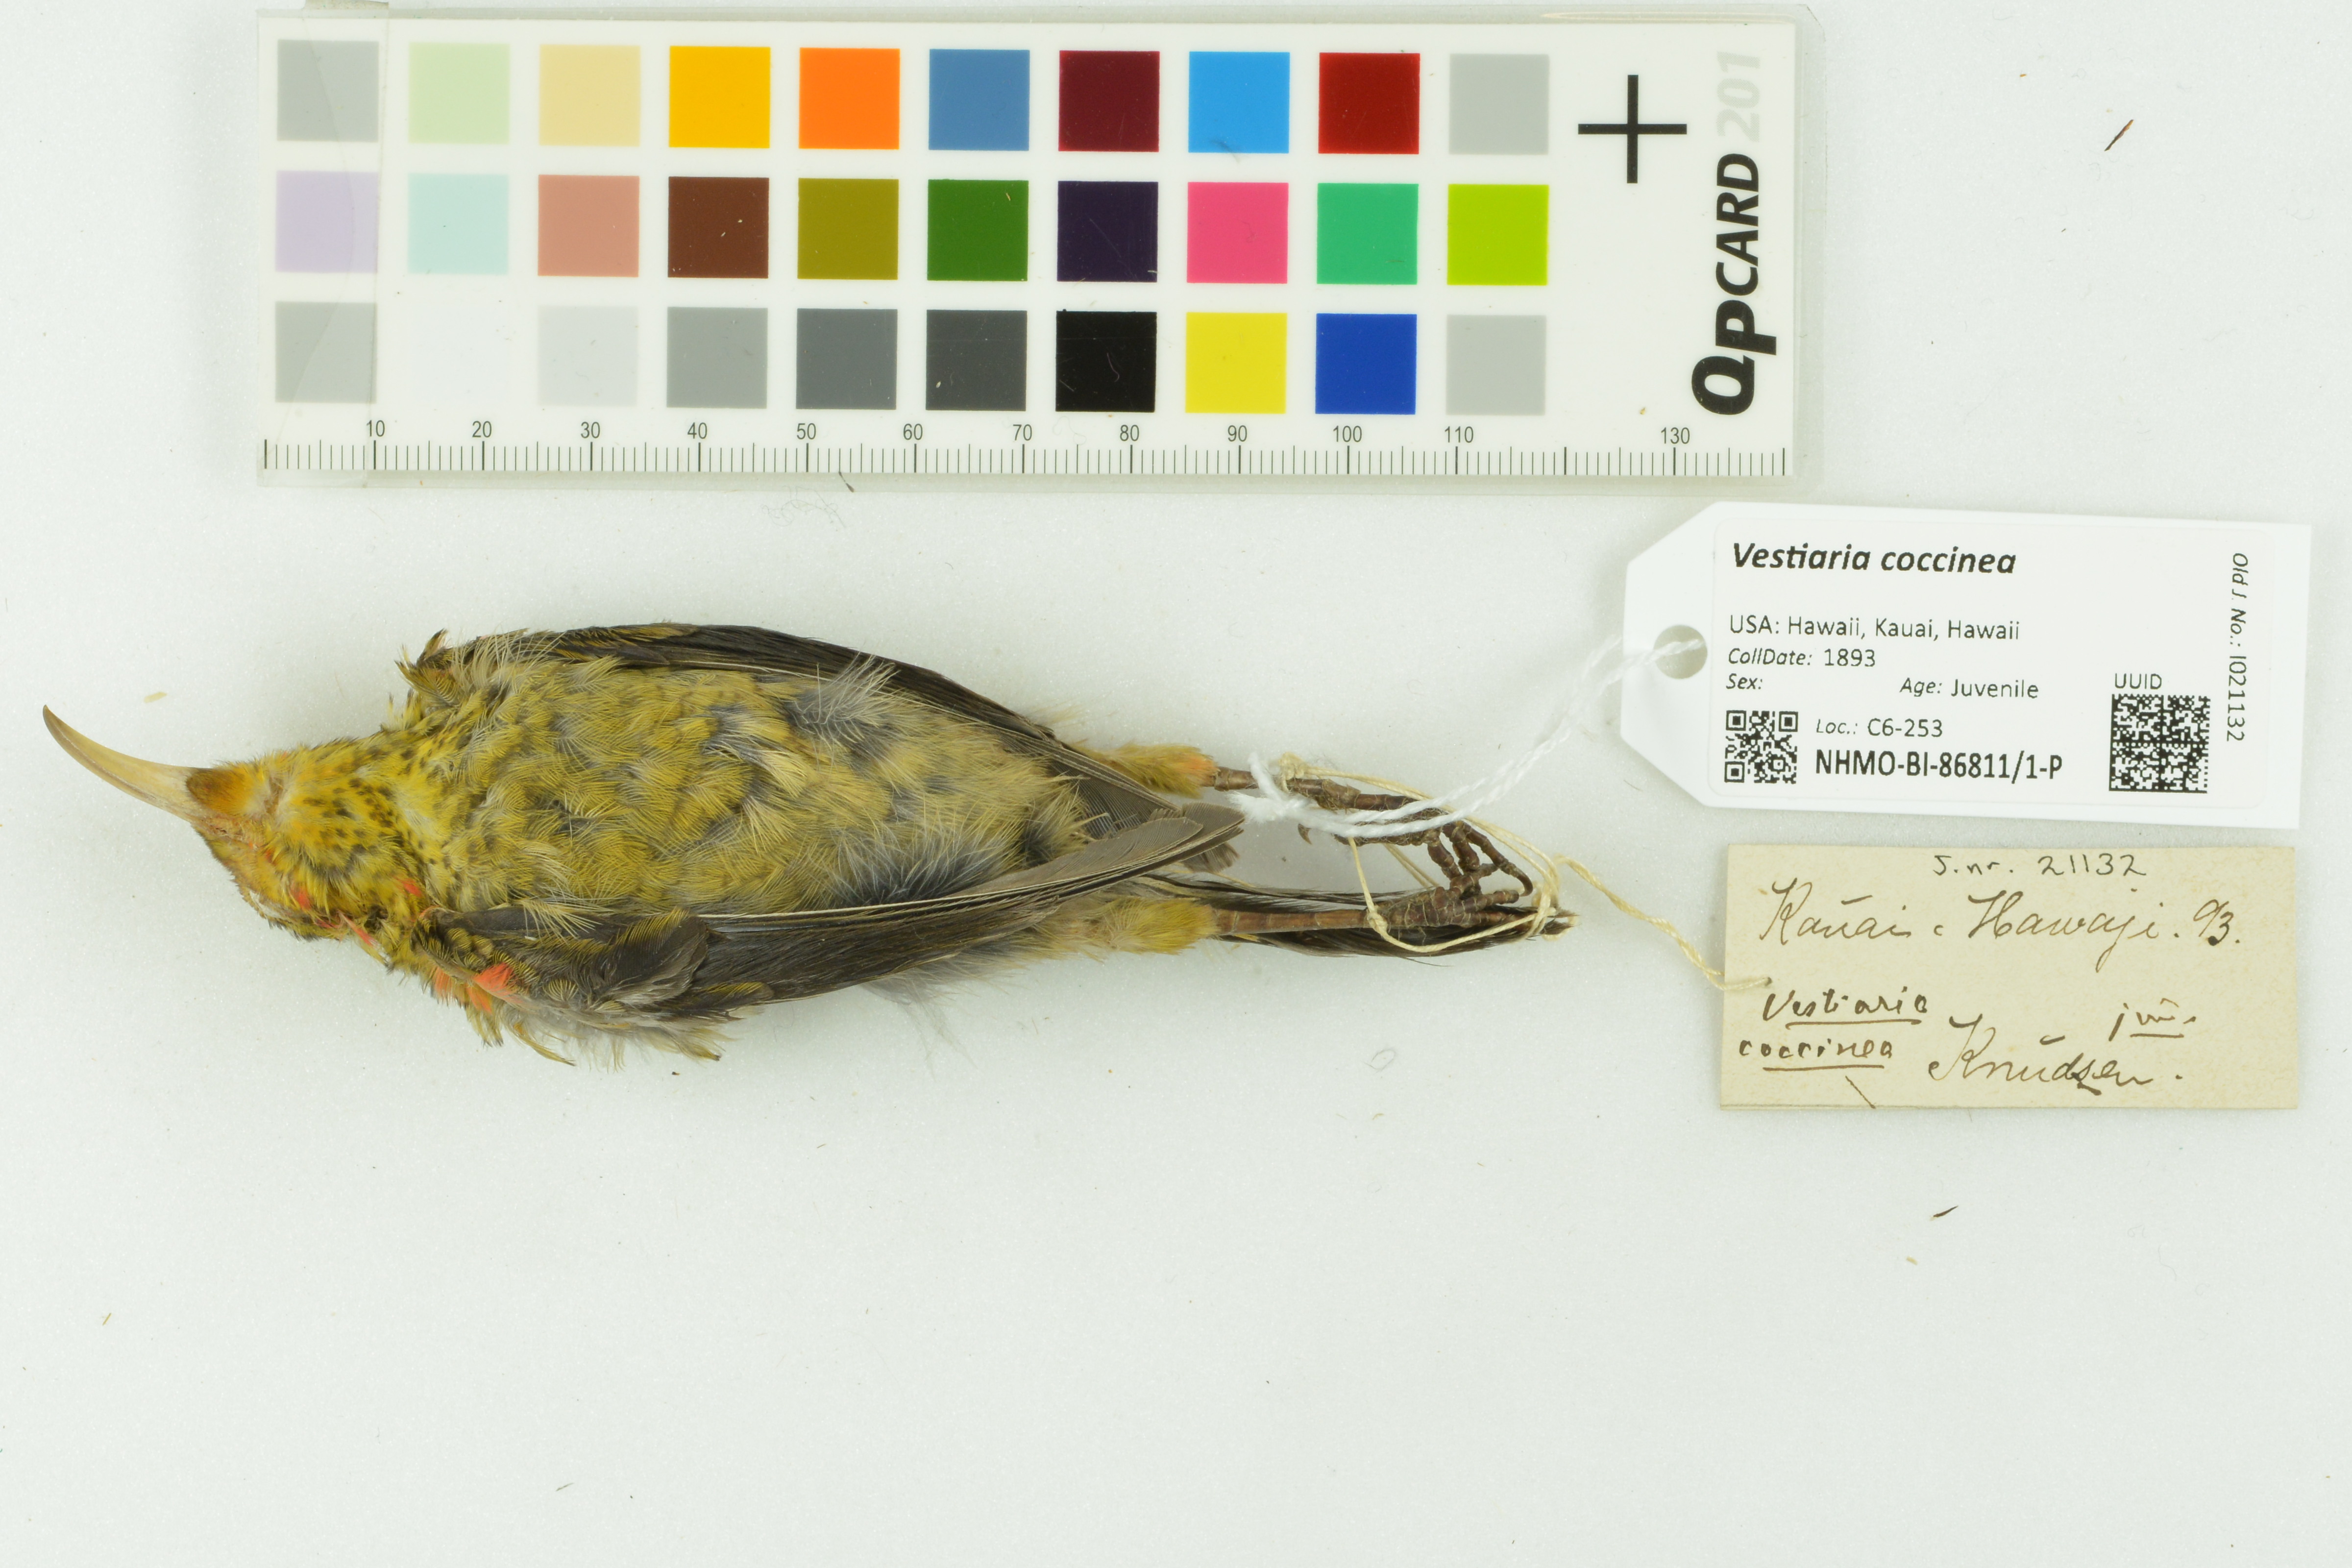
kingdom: Animalia
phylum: Chordata
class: Aves
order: Passeriformes
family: Fringillidae
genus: Vestiaria
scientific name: Vestiaria coccinea
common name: Iiwi
